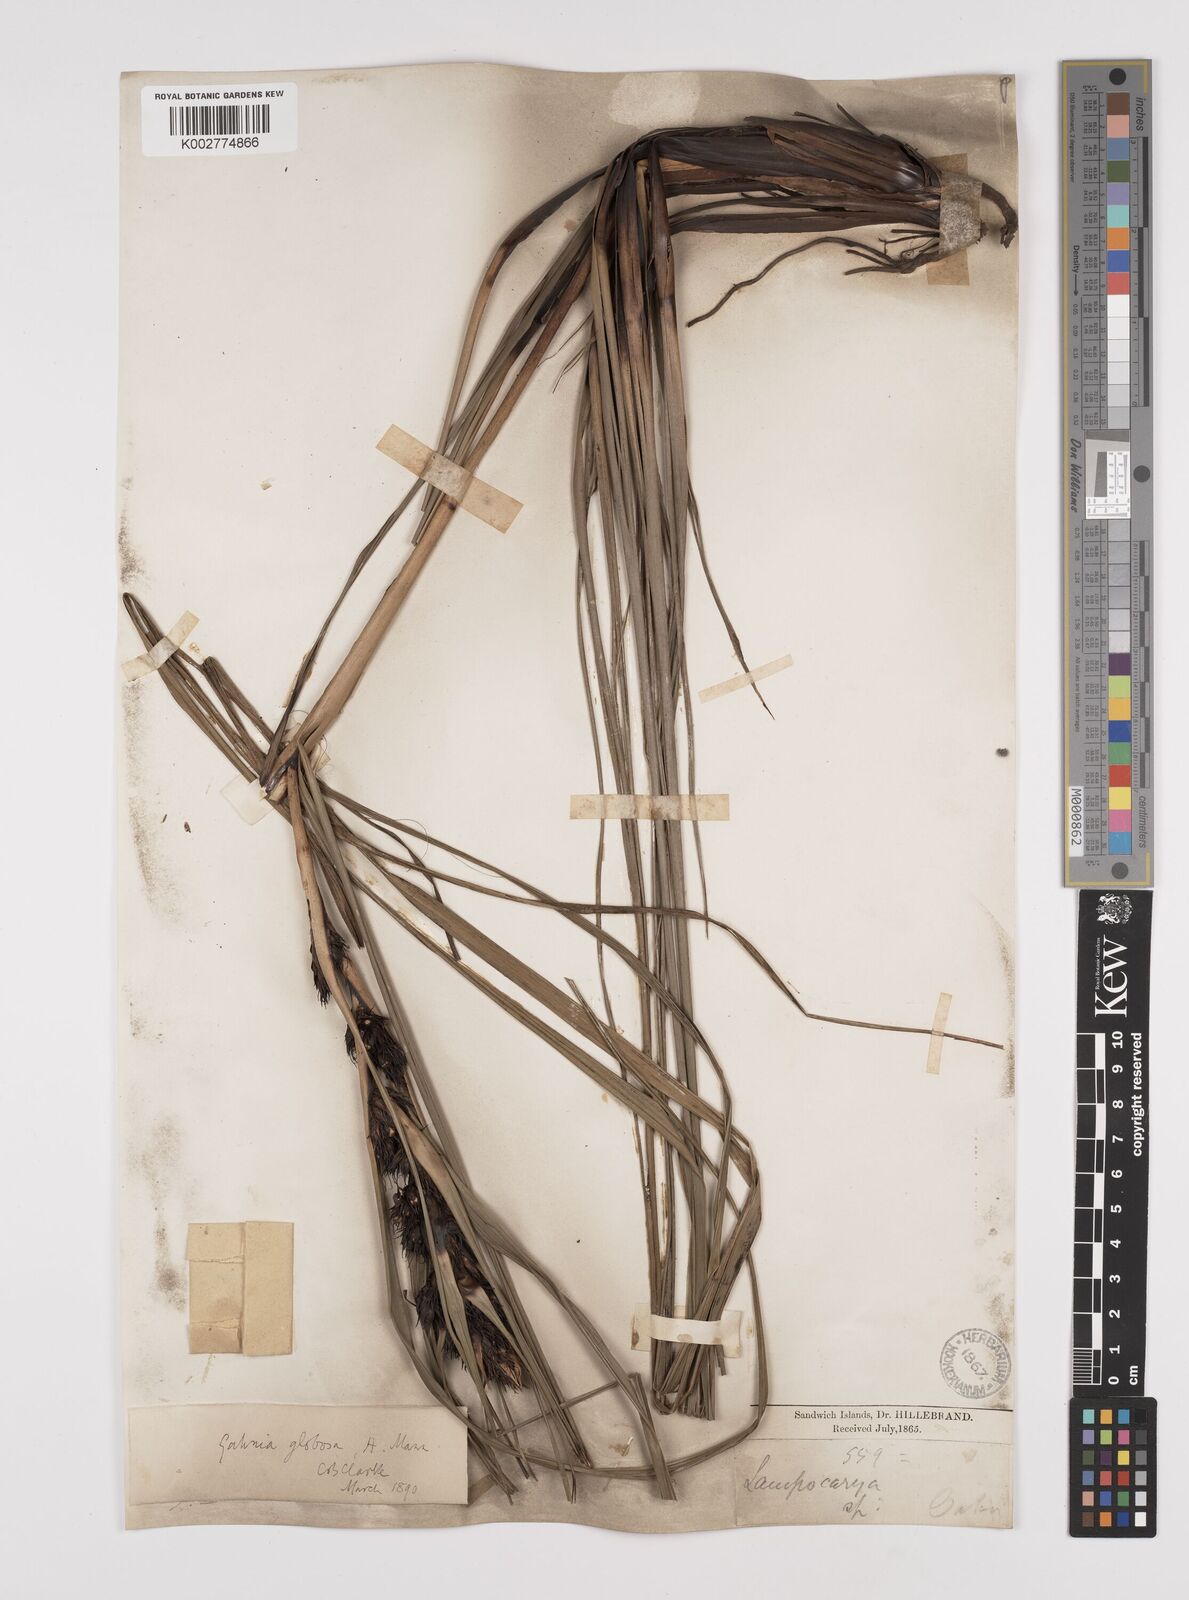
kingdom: Plantae
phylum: Tracheophyta
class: Liliopsida
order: Poales
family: Cyperaceae
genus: Gahnia
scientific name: Gahnia aspera
